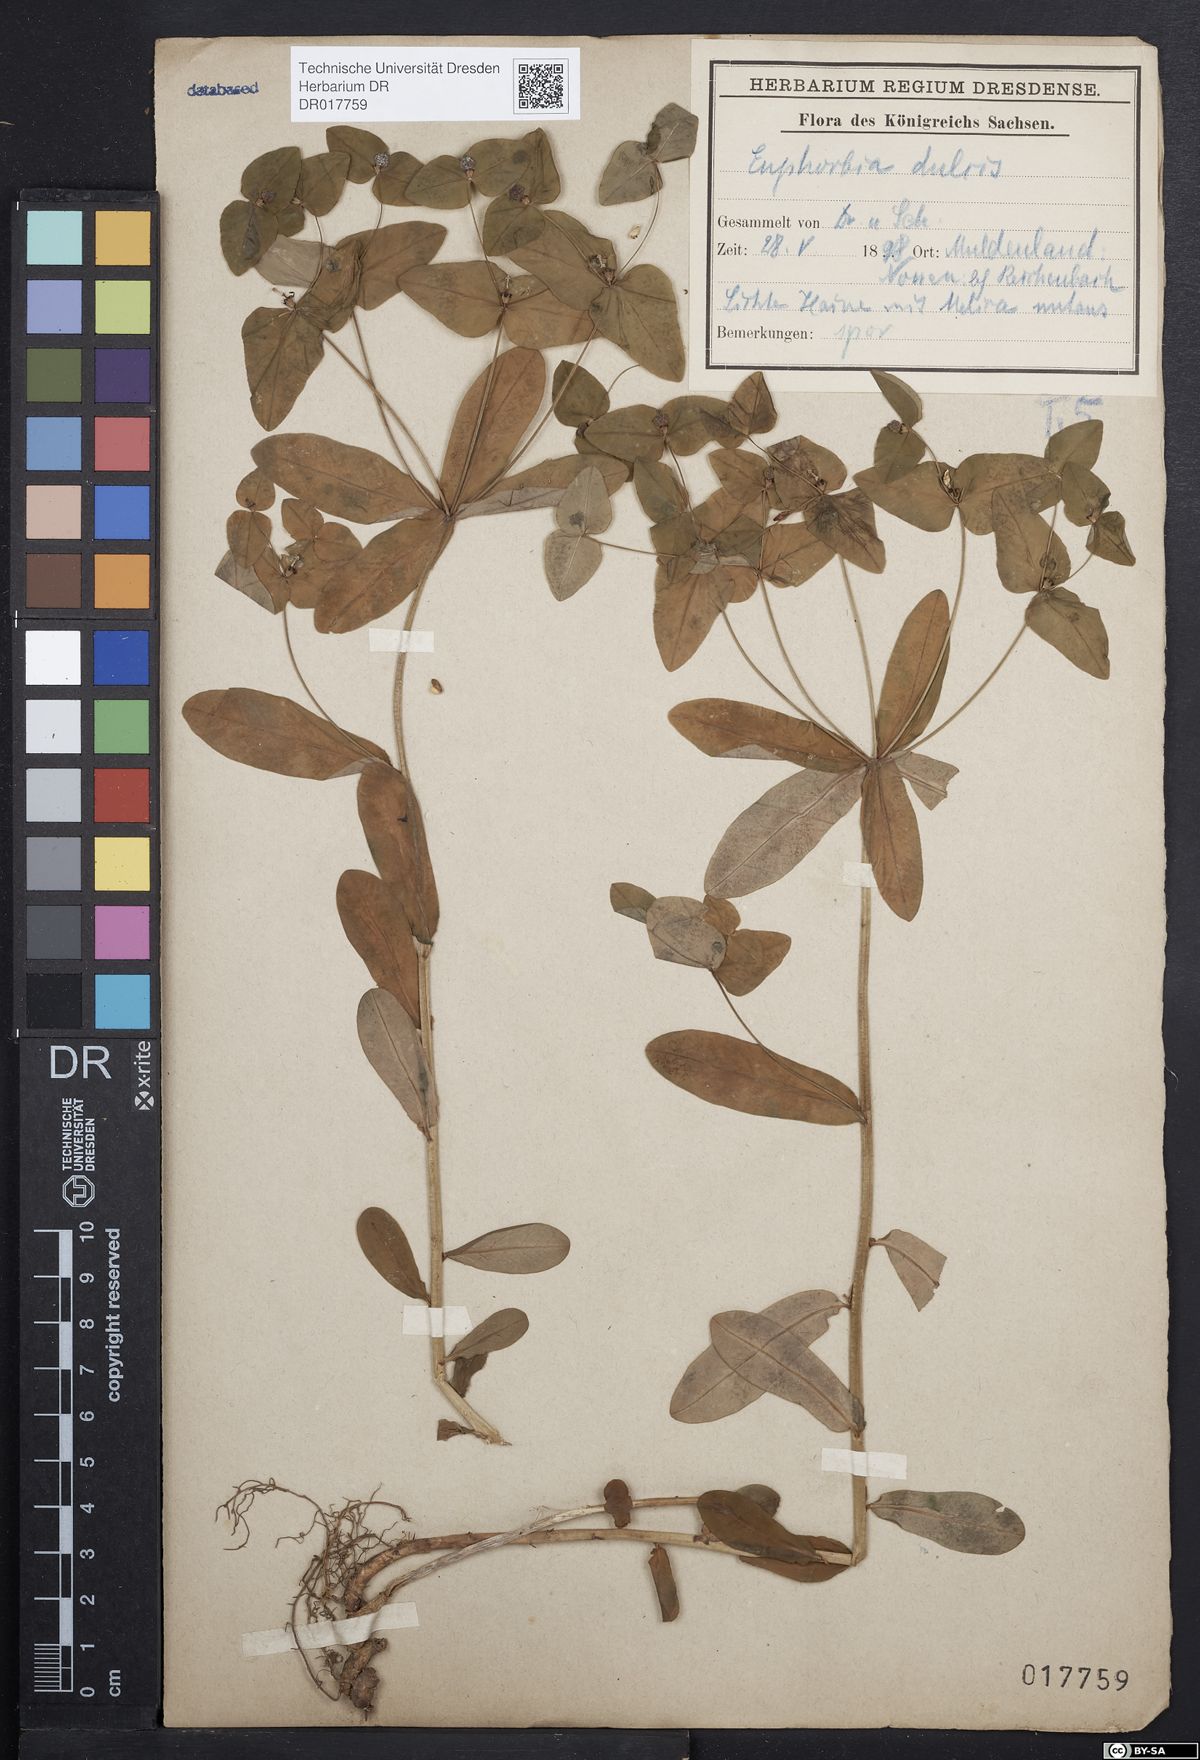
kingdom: Plantae
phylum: Tracheophyta
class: Magnoliopsida
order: Malpighiales
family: Euphorbiaceae
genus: Euphorbia
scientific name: Euphorbia dulcis
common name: Sweet spurge
